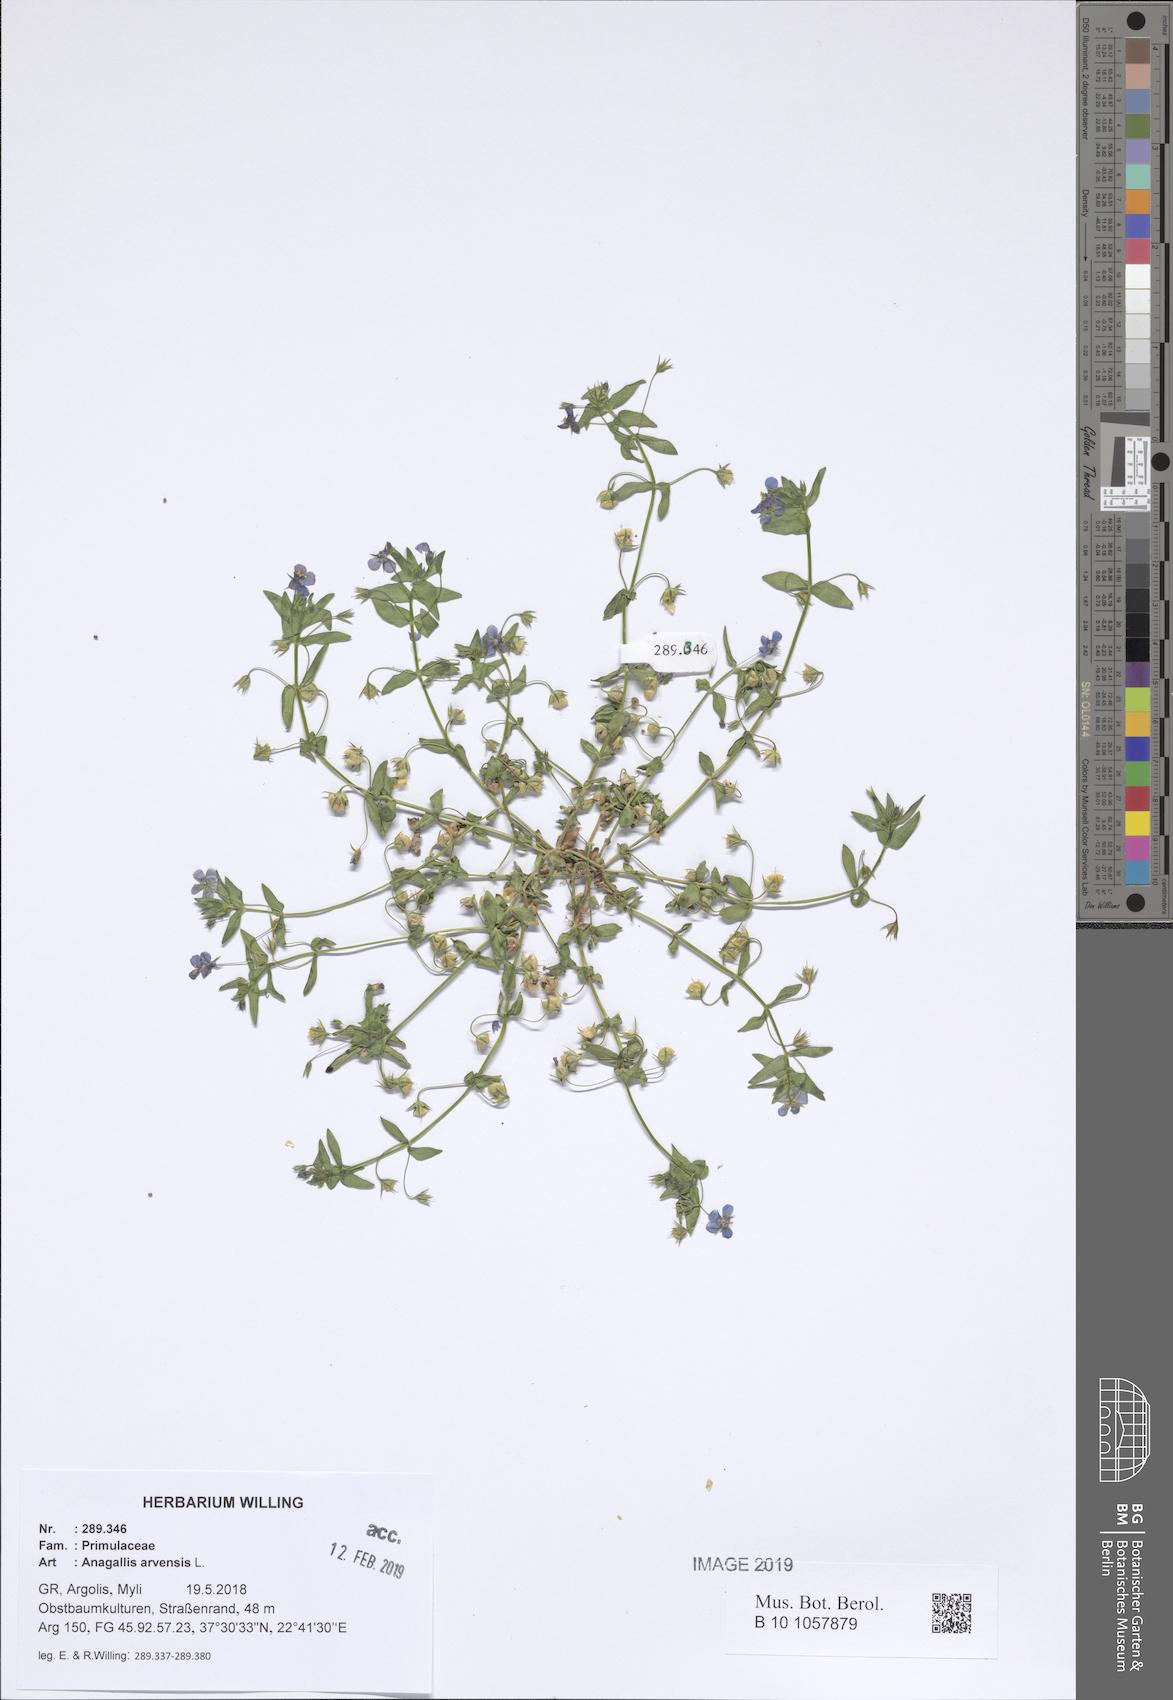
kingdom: Plantae
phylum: Tracheophyta
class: Magnoliopsida
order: Ericales
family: Primulaceae
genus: Lysimachia
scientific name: Lysimachia arvensis
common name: Scarlet pimpernel
